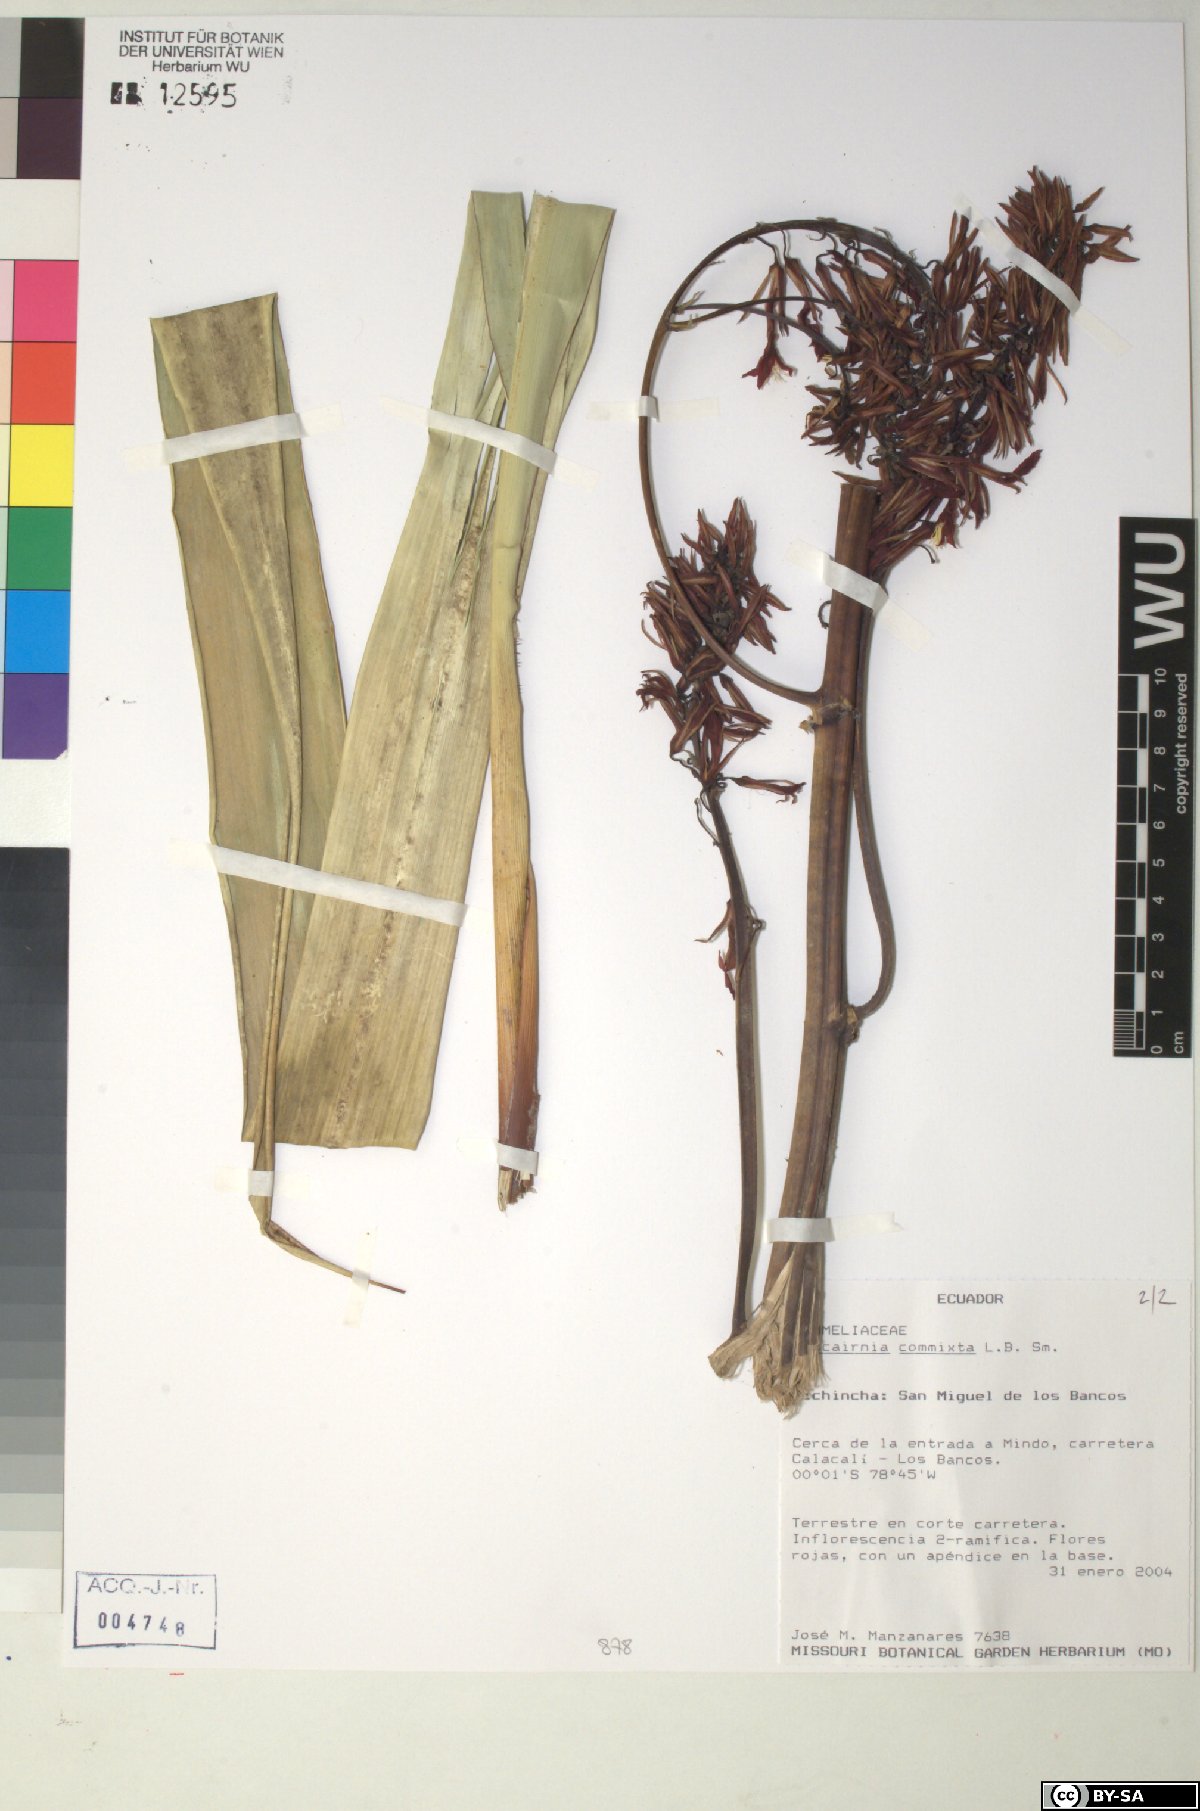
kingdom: Plantae
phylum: Tracheophyta
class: Liliopsida
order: Poales
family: Bromeliaceae
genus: Pitcairnia
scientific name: Pitcairnia commixta
